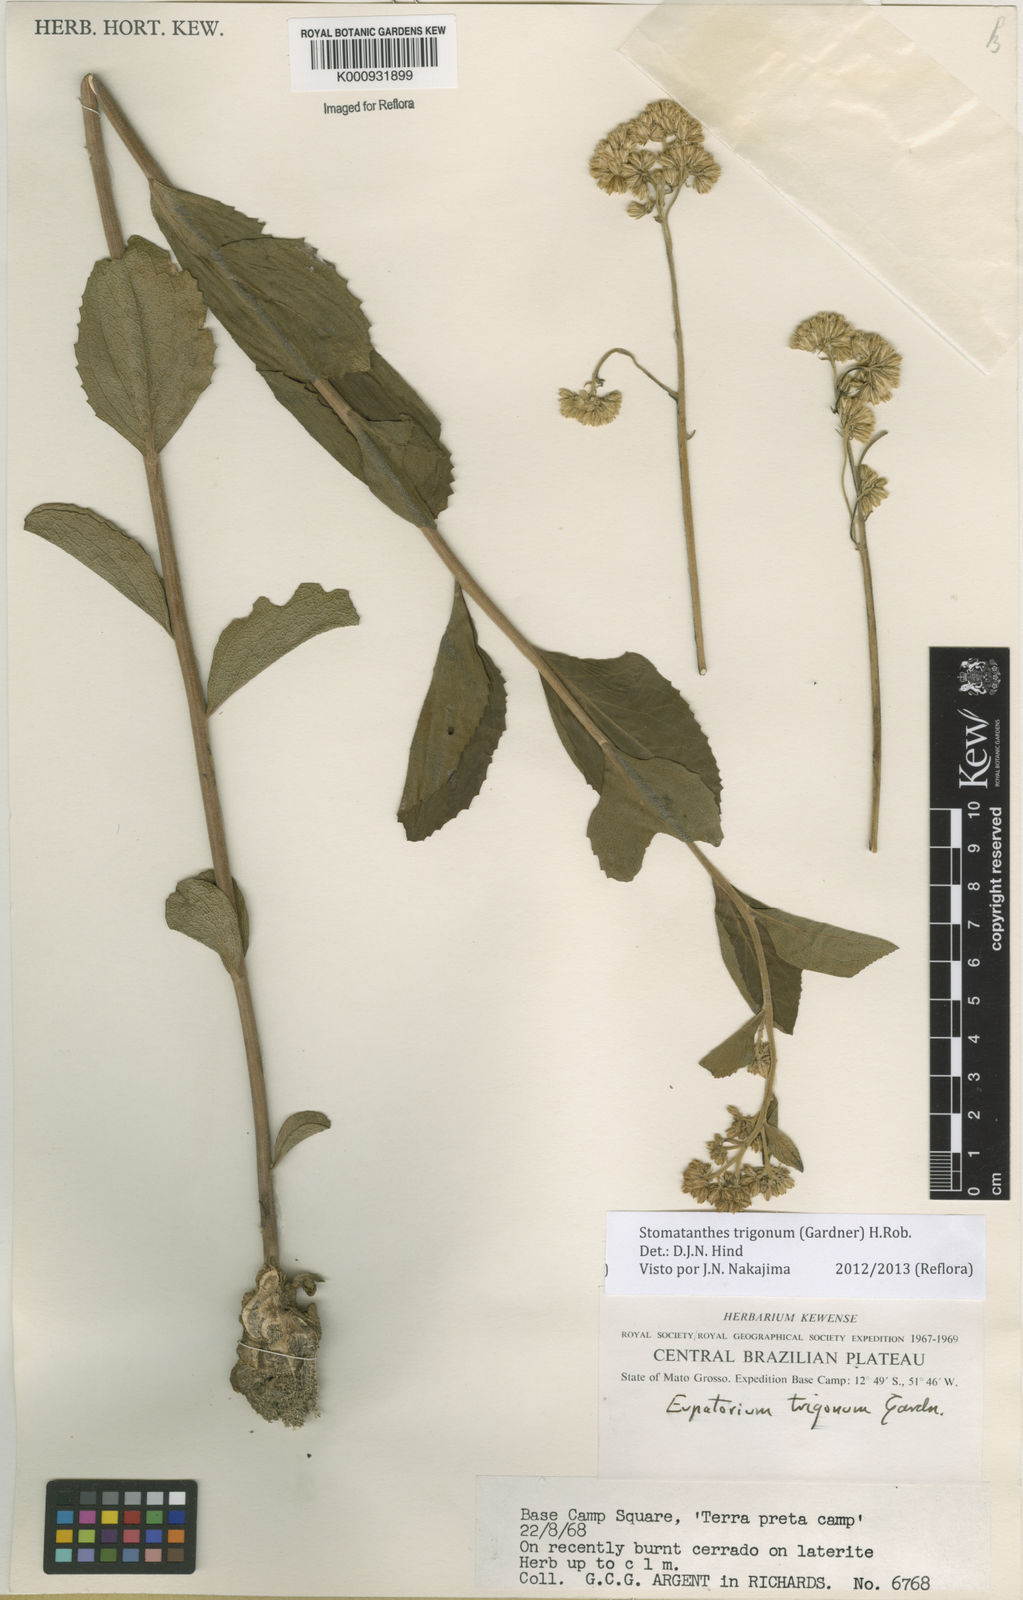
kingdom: Plantae
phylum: Tracheophyta
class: Magnoliopsida
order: Asterales
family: Asteraceae
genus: Stomatanthes
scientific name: Stomatanthes trigonus
